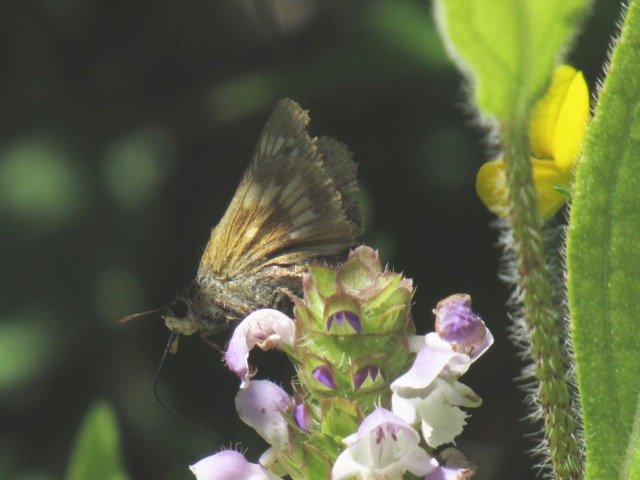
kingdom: Animalia
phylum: Arthropoda
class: Insecta
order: Lepidoptera
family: Hesperiidae
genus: Polites
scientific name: Polites
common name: Long Dash Skipper
